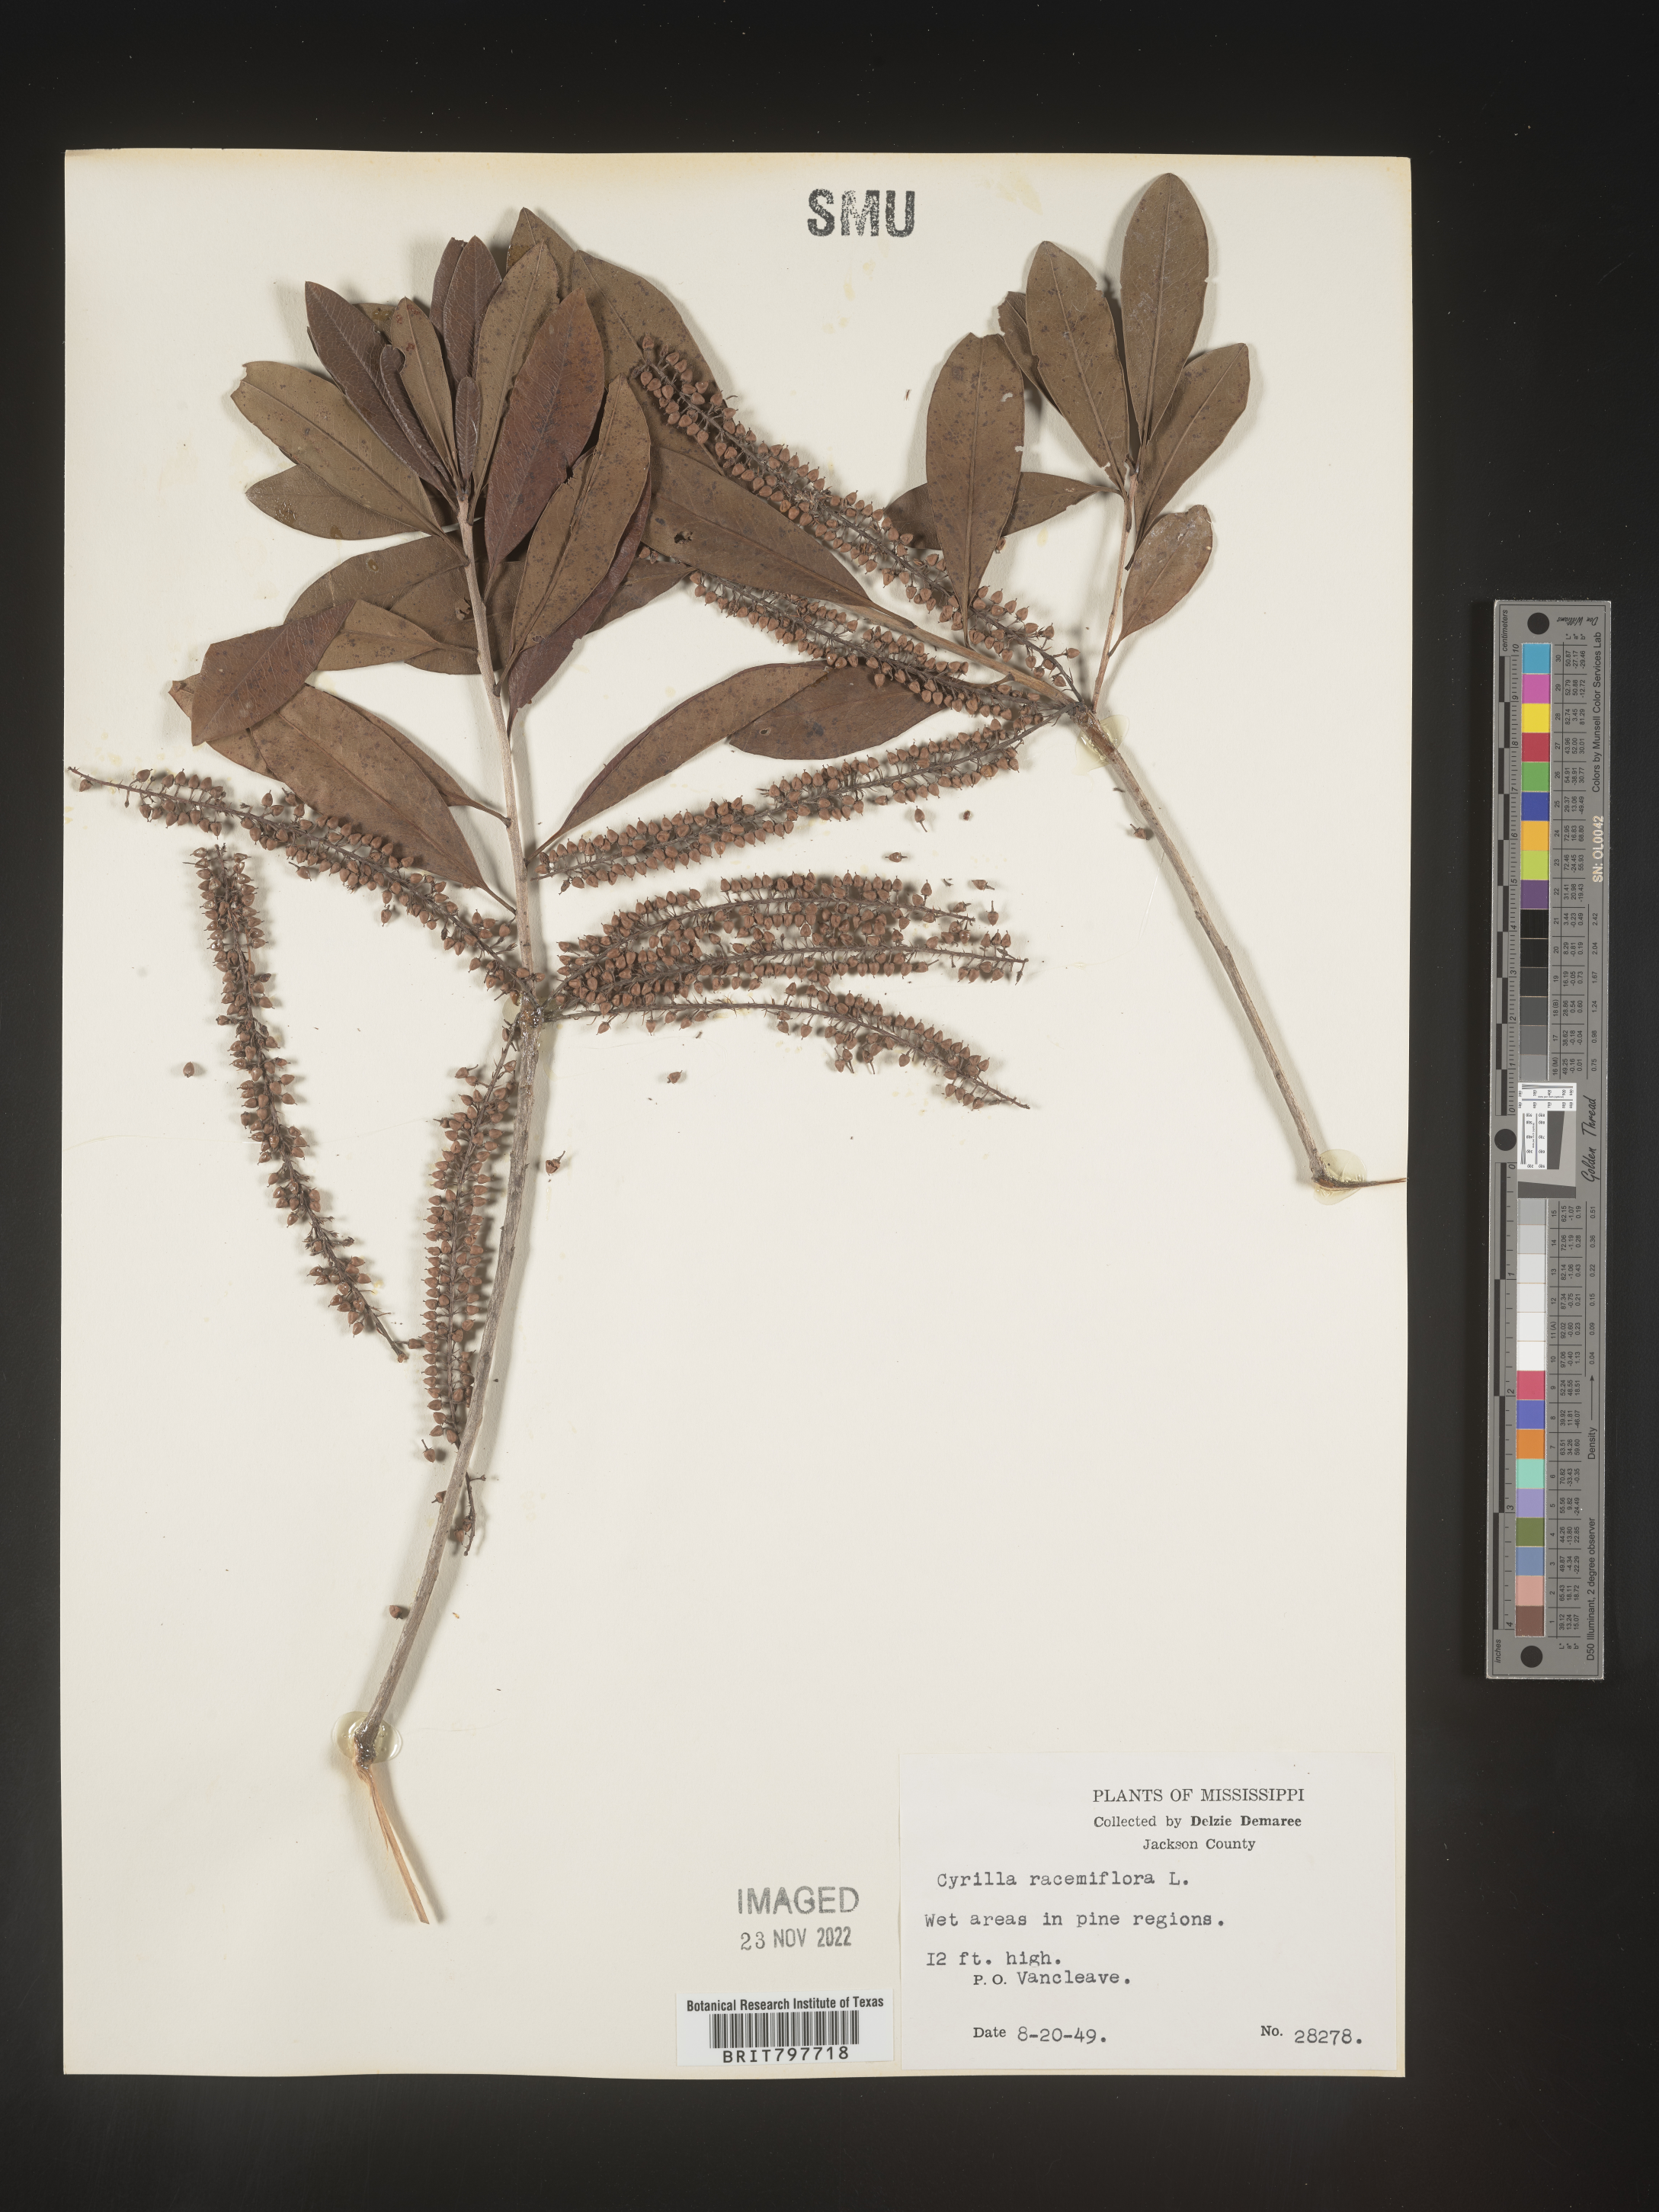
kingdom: Plantae
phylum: Tracheophyta
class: Magnoliopsida
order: Ericales
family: Cyrillaceae
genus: Cyrilla
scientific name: Cyrilla racemiflora
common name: Black titi
